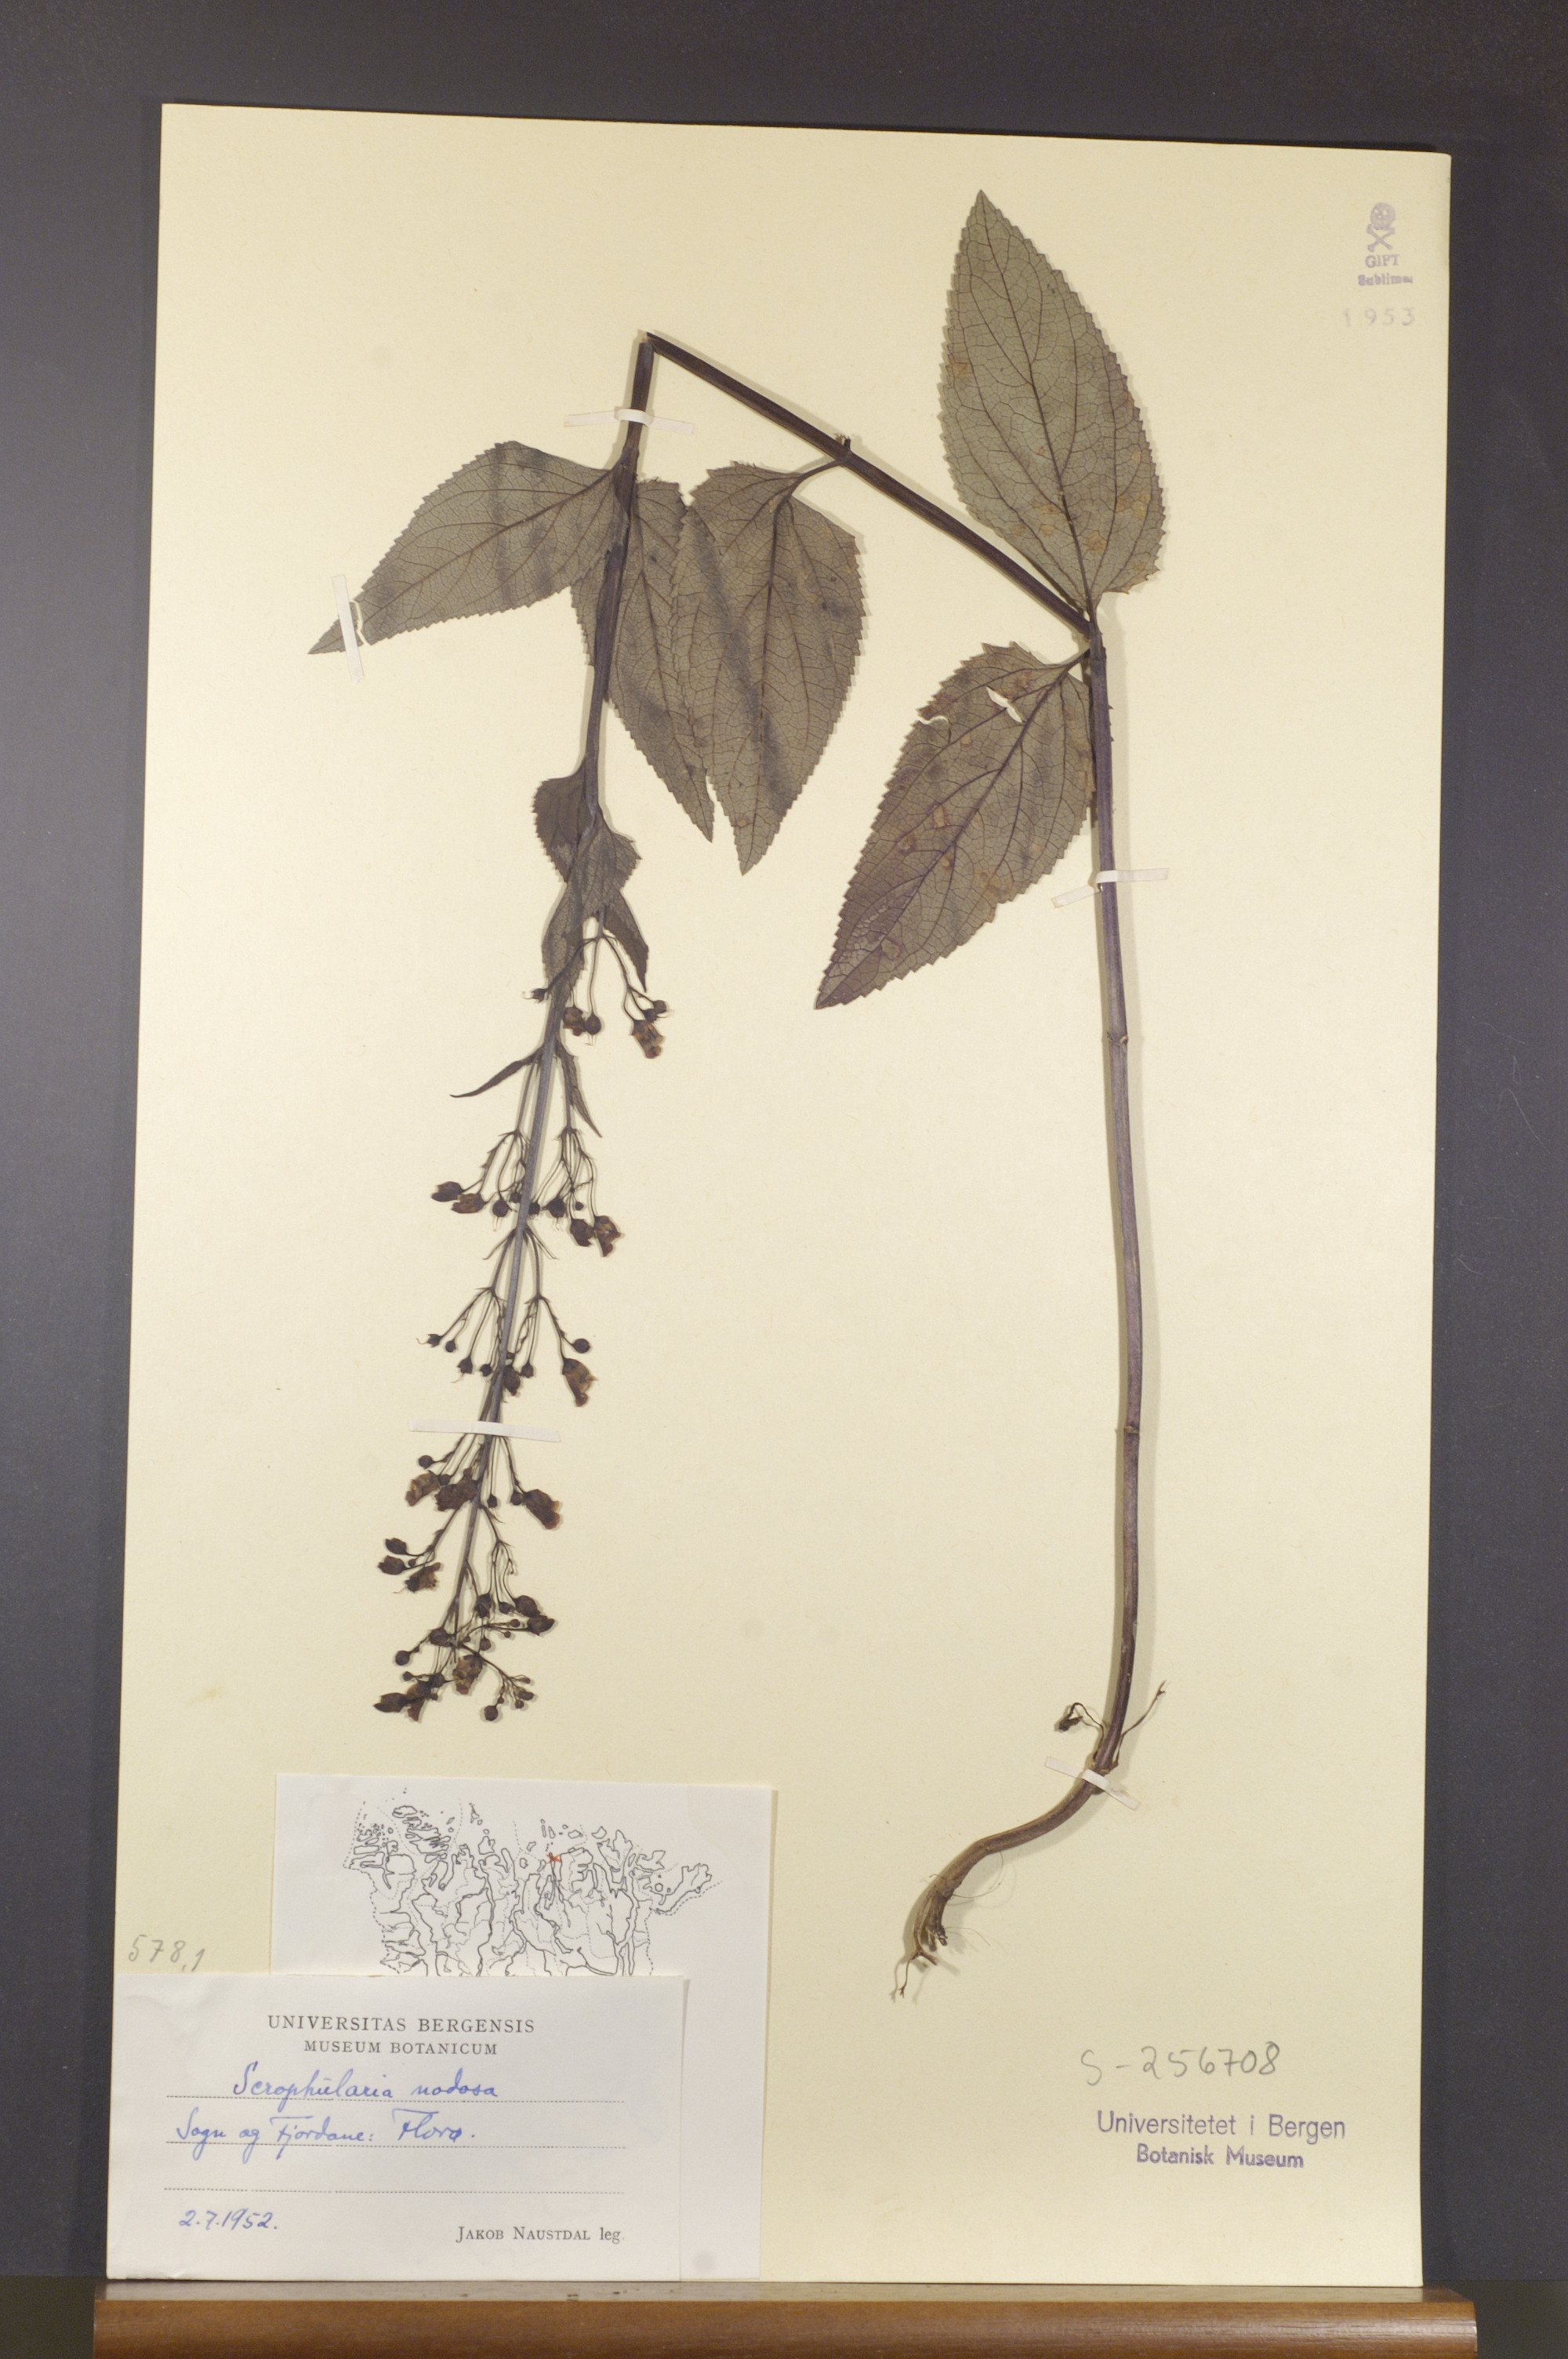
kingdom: Plantae
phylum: Tracheophyta
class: Magnoliopsida
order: Lamiales
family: Scrophulariaceae
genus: Scrophularia
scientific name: Scrophularia nodosa
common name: Common figwort
